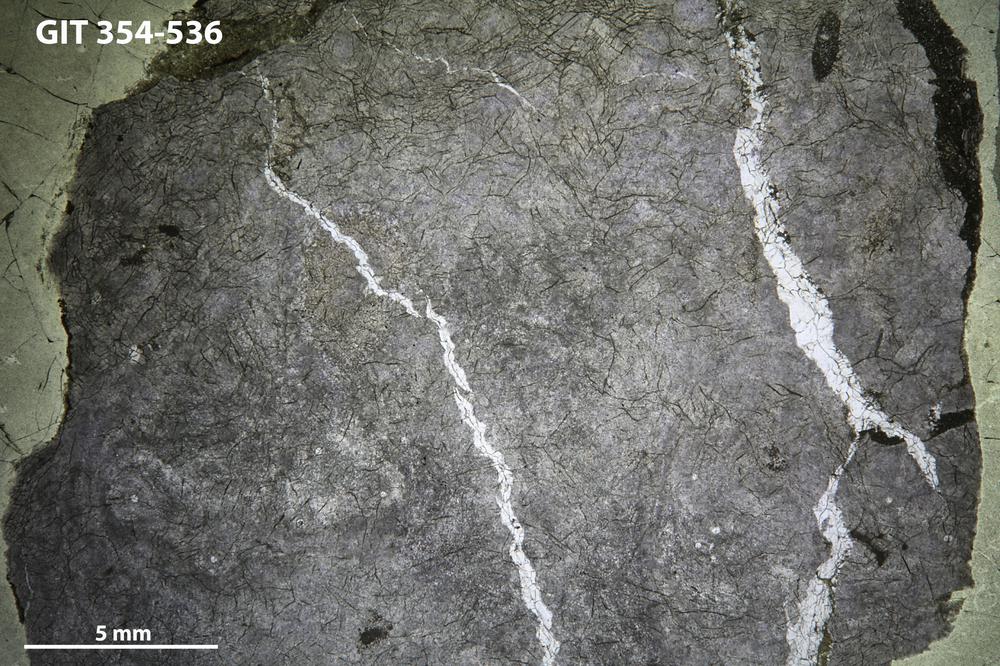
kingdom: Animalia
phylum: Porifera
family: Clathrodictyidae
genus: Clathrodictyon
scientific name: Clathrodictyon delicatulum
